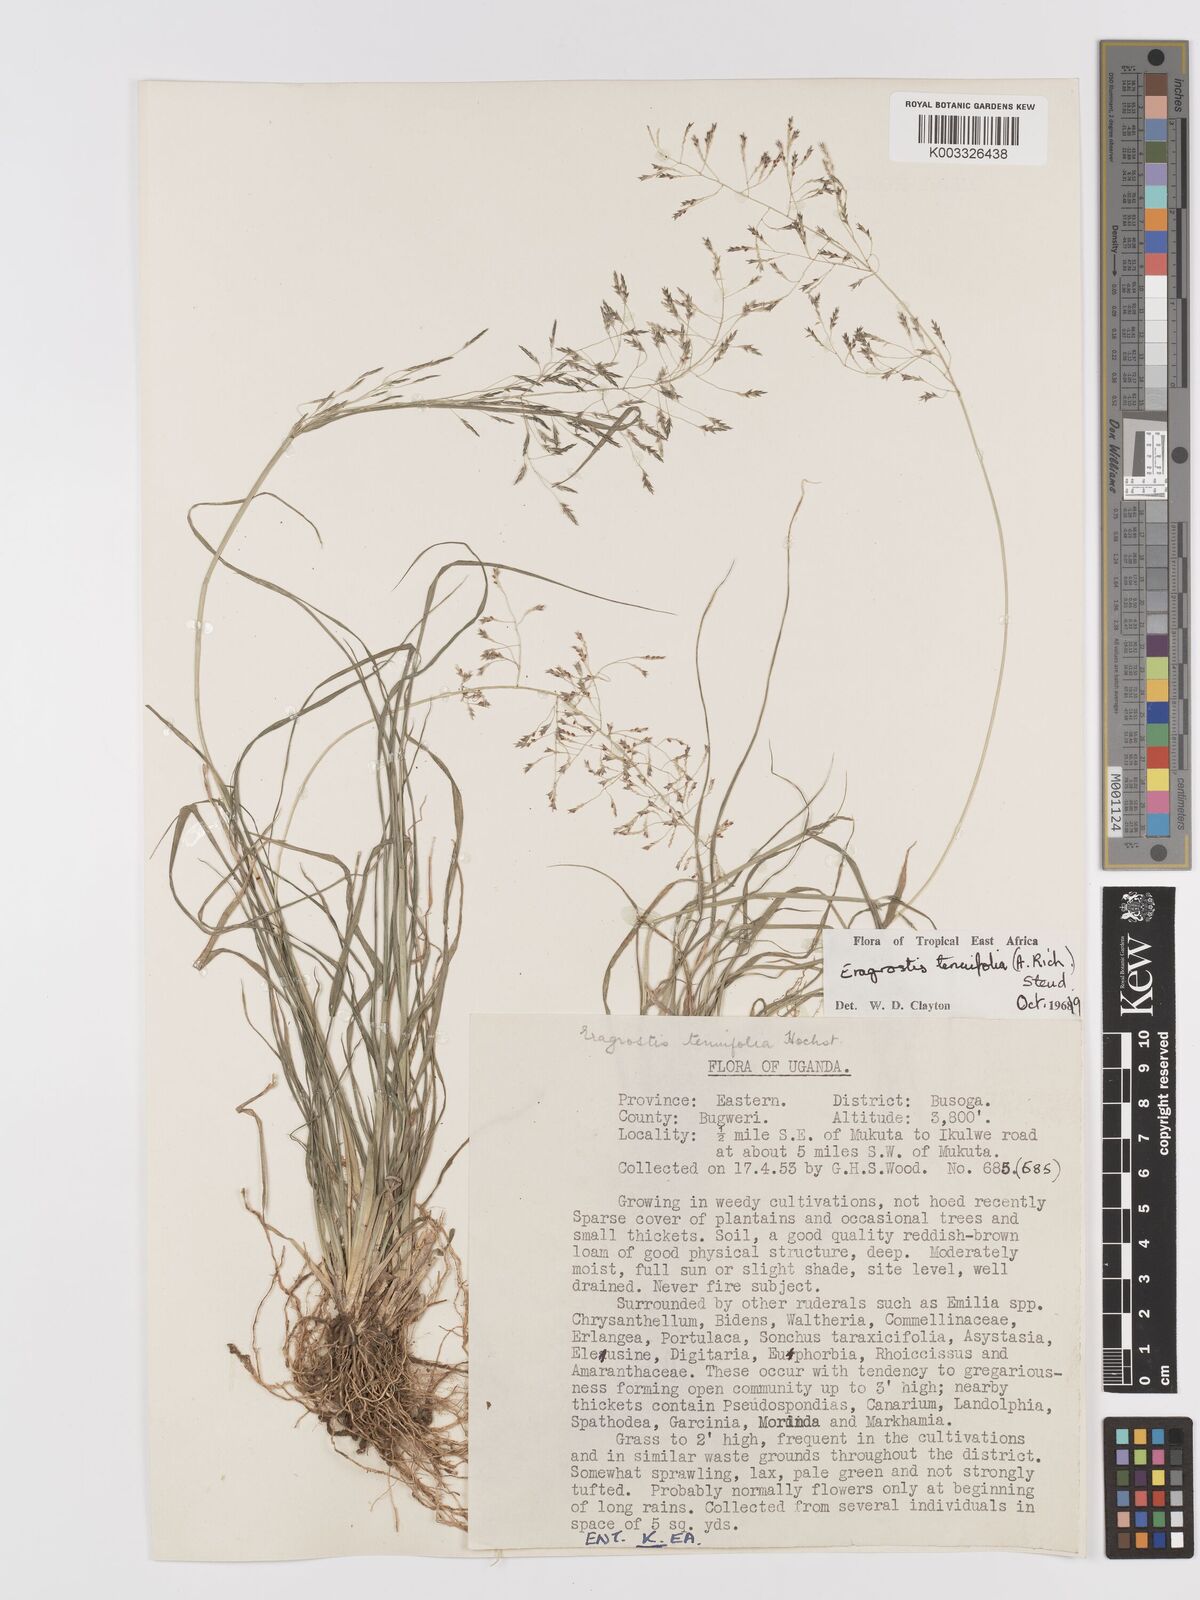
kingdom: Plantae
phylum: Tracheophyta
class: Liliopsida
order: Poales
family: Poaceae
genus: Eragrostis
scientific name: Eragrostis tenuifolia
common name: Elastic grass
